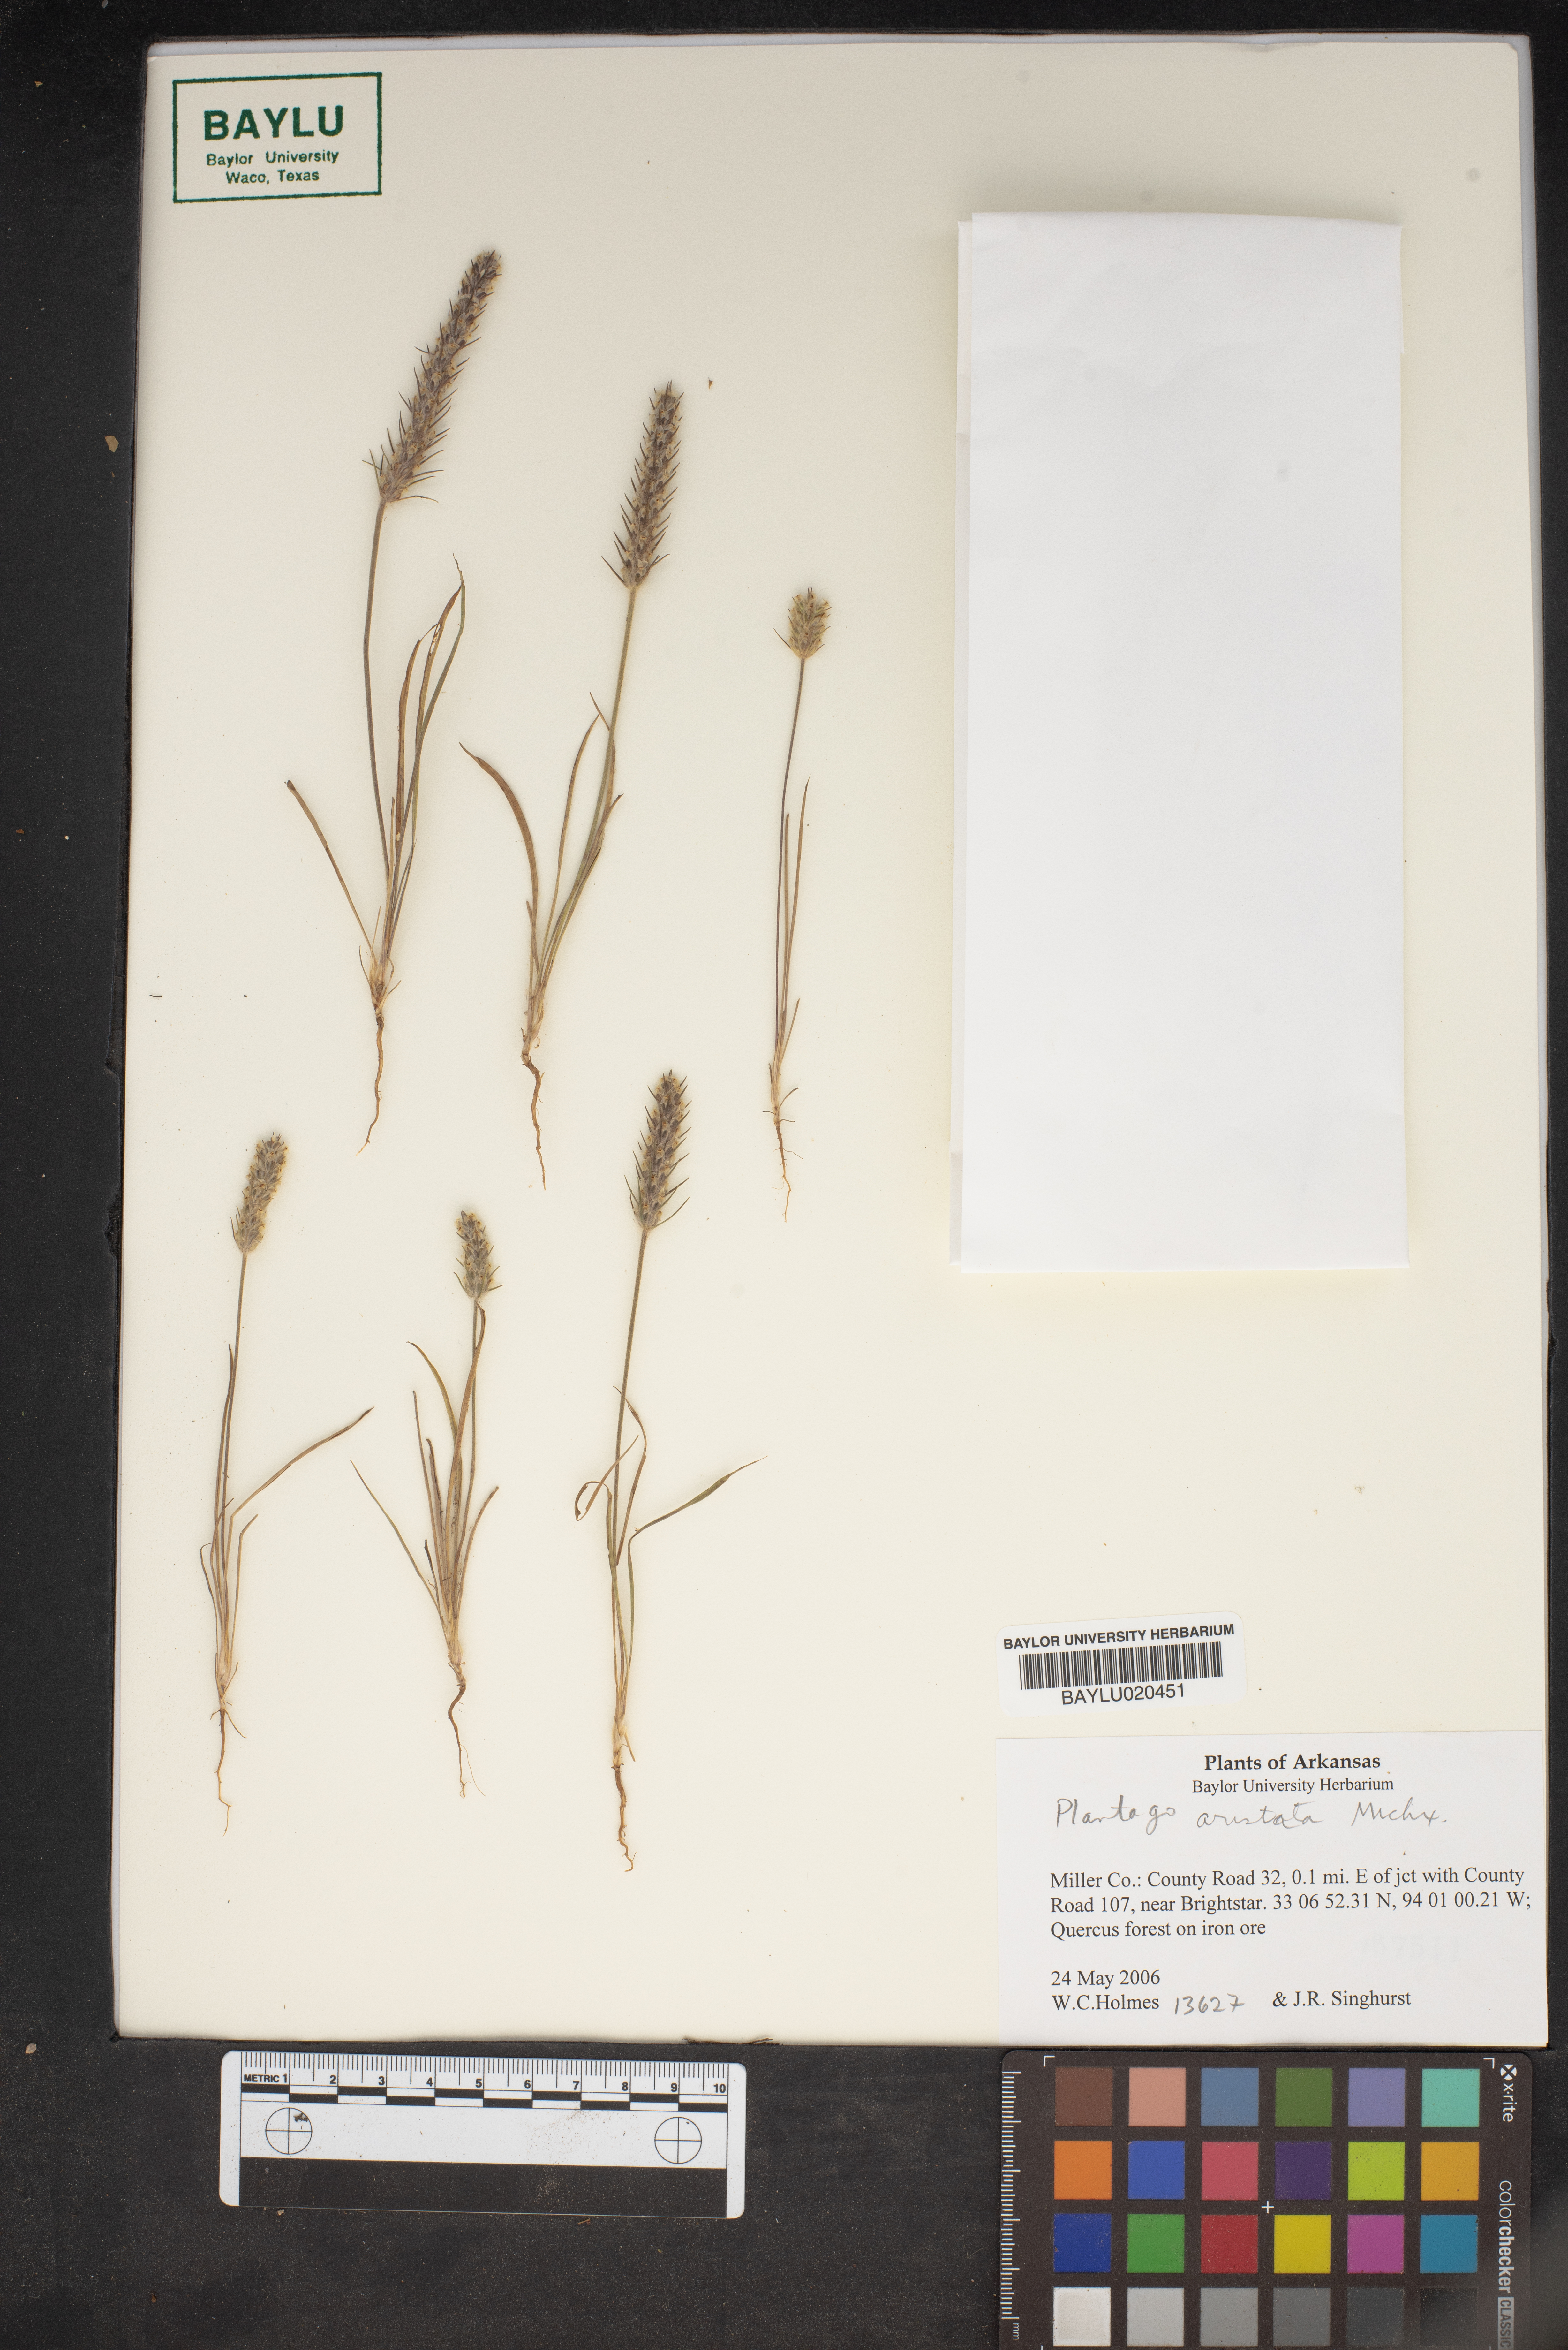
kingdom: Plantae
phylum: Tracheophyta
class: Magnoliopsida
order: Lamiales
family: Plantaginaceae
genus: Plantago
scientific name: Plantago aristata
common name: Bracted plantain
